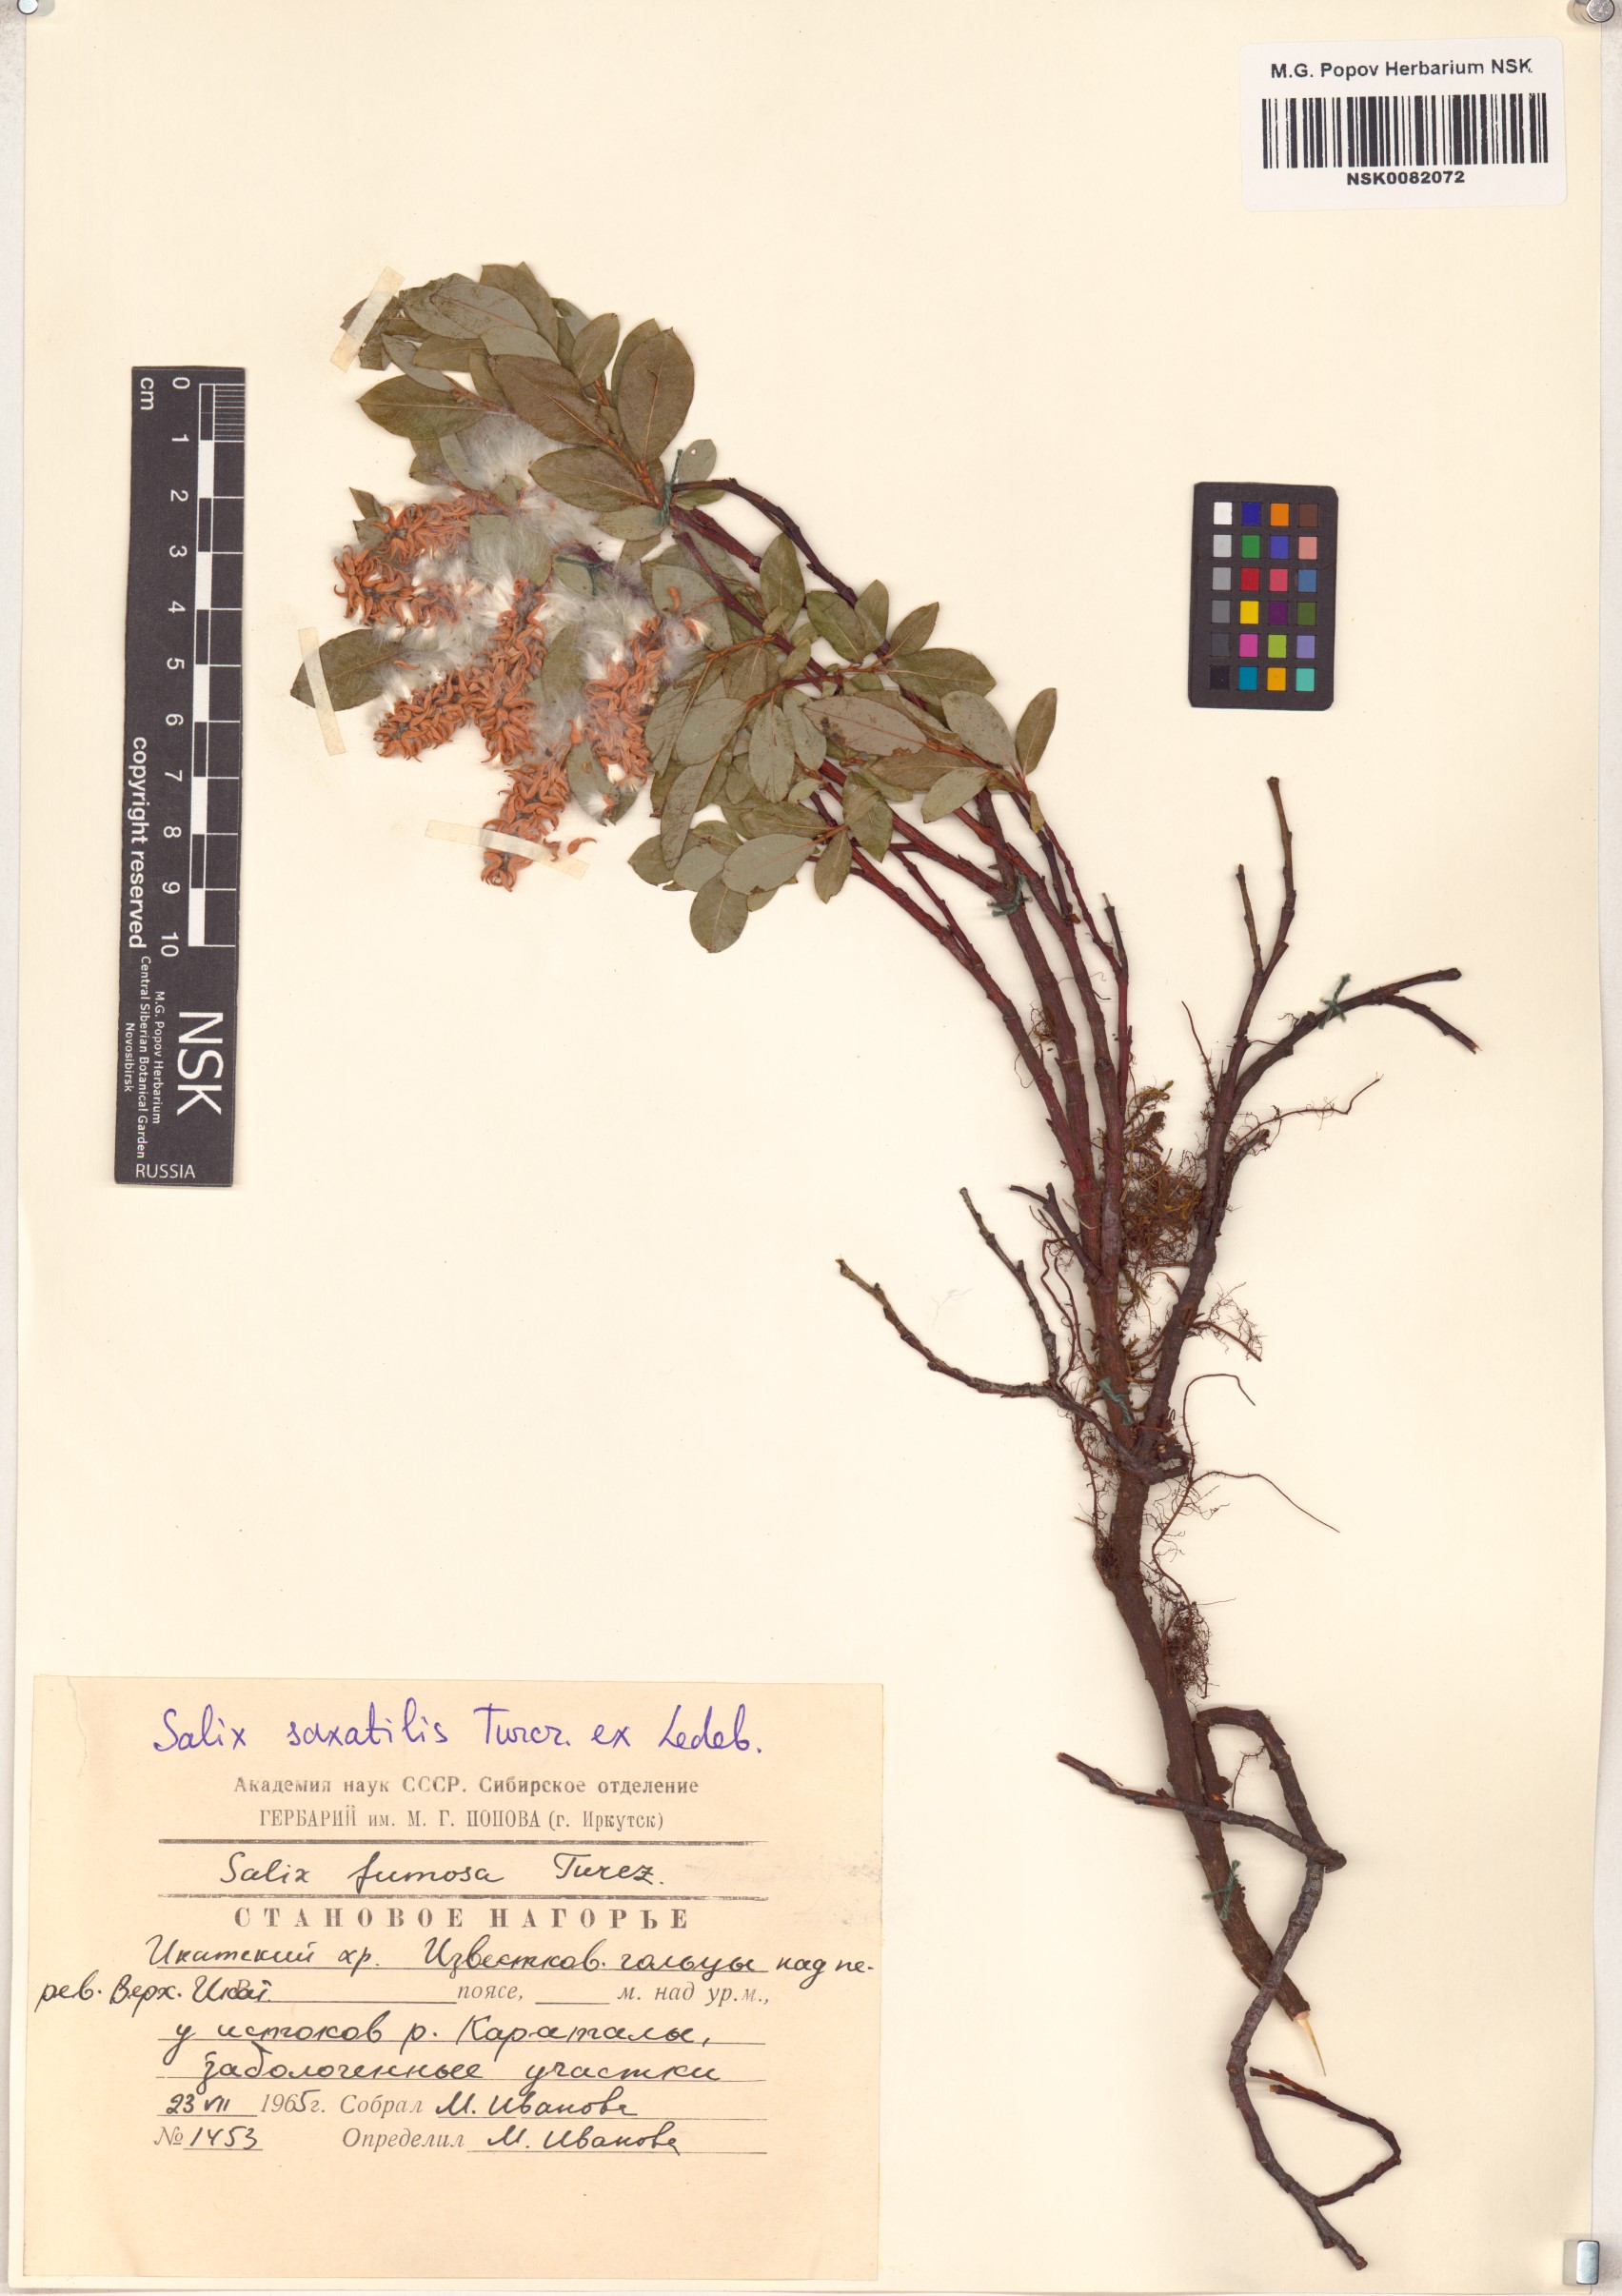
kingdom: Plantae
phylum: Tracheophyta
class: Magnoliopsida
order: Malpighiales
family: Salicaceae
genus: Salix
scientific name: Salix saxatilis
